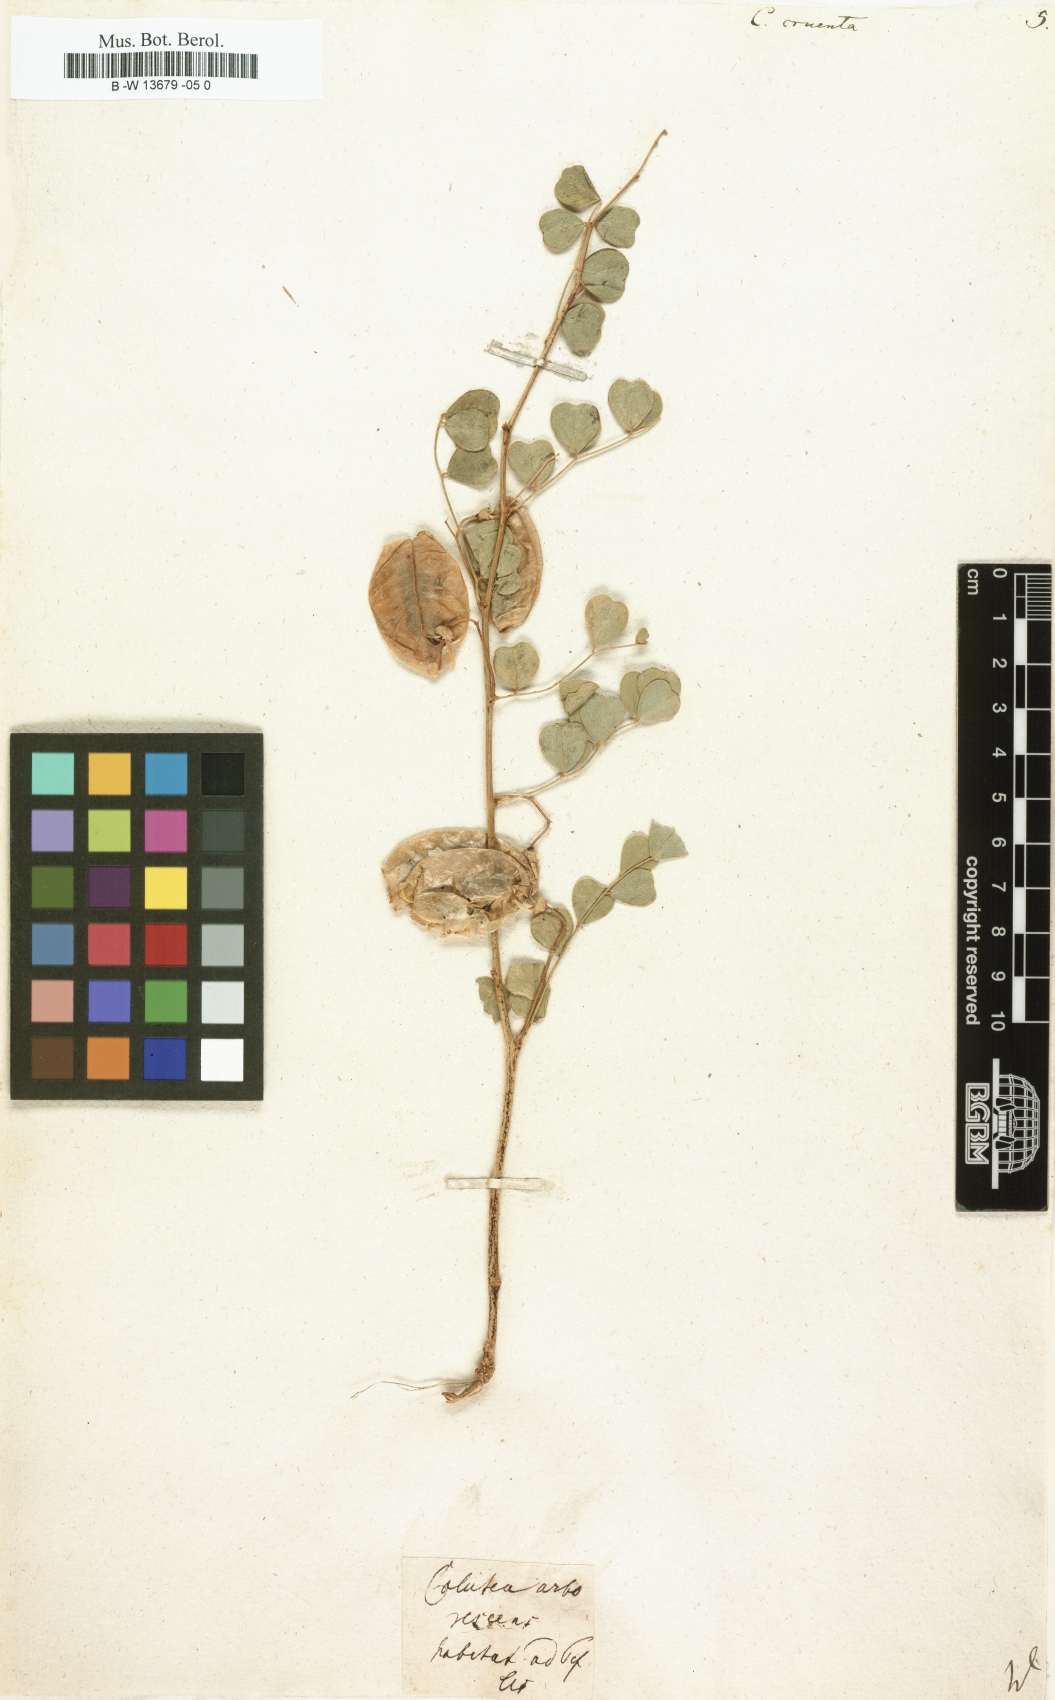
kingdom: Plantae
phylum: Tracheophyta
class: Magnoliopsida
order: Fabales
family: Fabaceae
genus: Colutea
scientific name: Colutea orientalis
